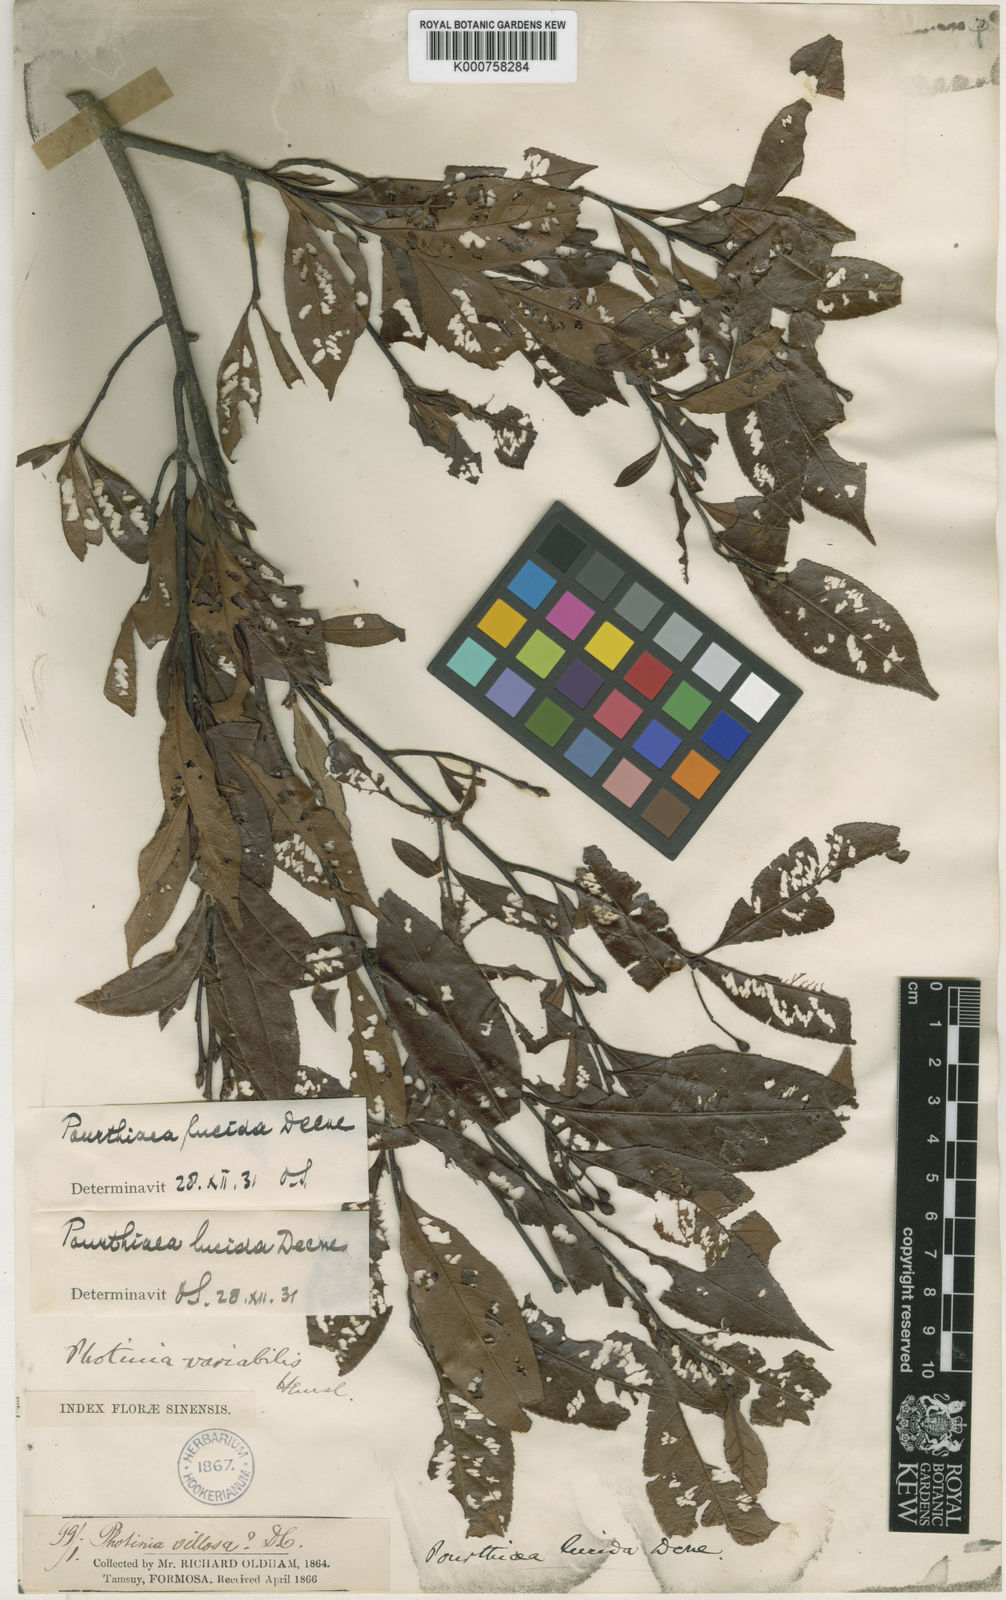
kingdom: Plantae
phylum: Tracheophyta
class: Magnoliopsida
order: Rosales
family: Rosaceae
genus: Pourthiaea
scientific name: Pourthiaea lucida
